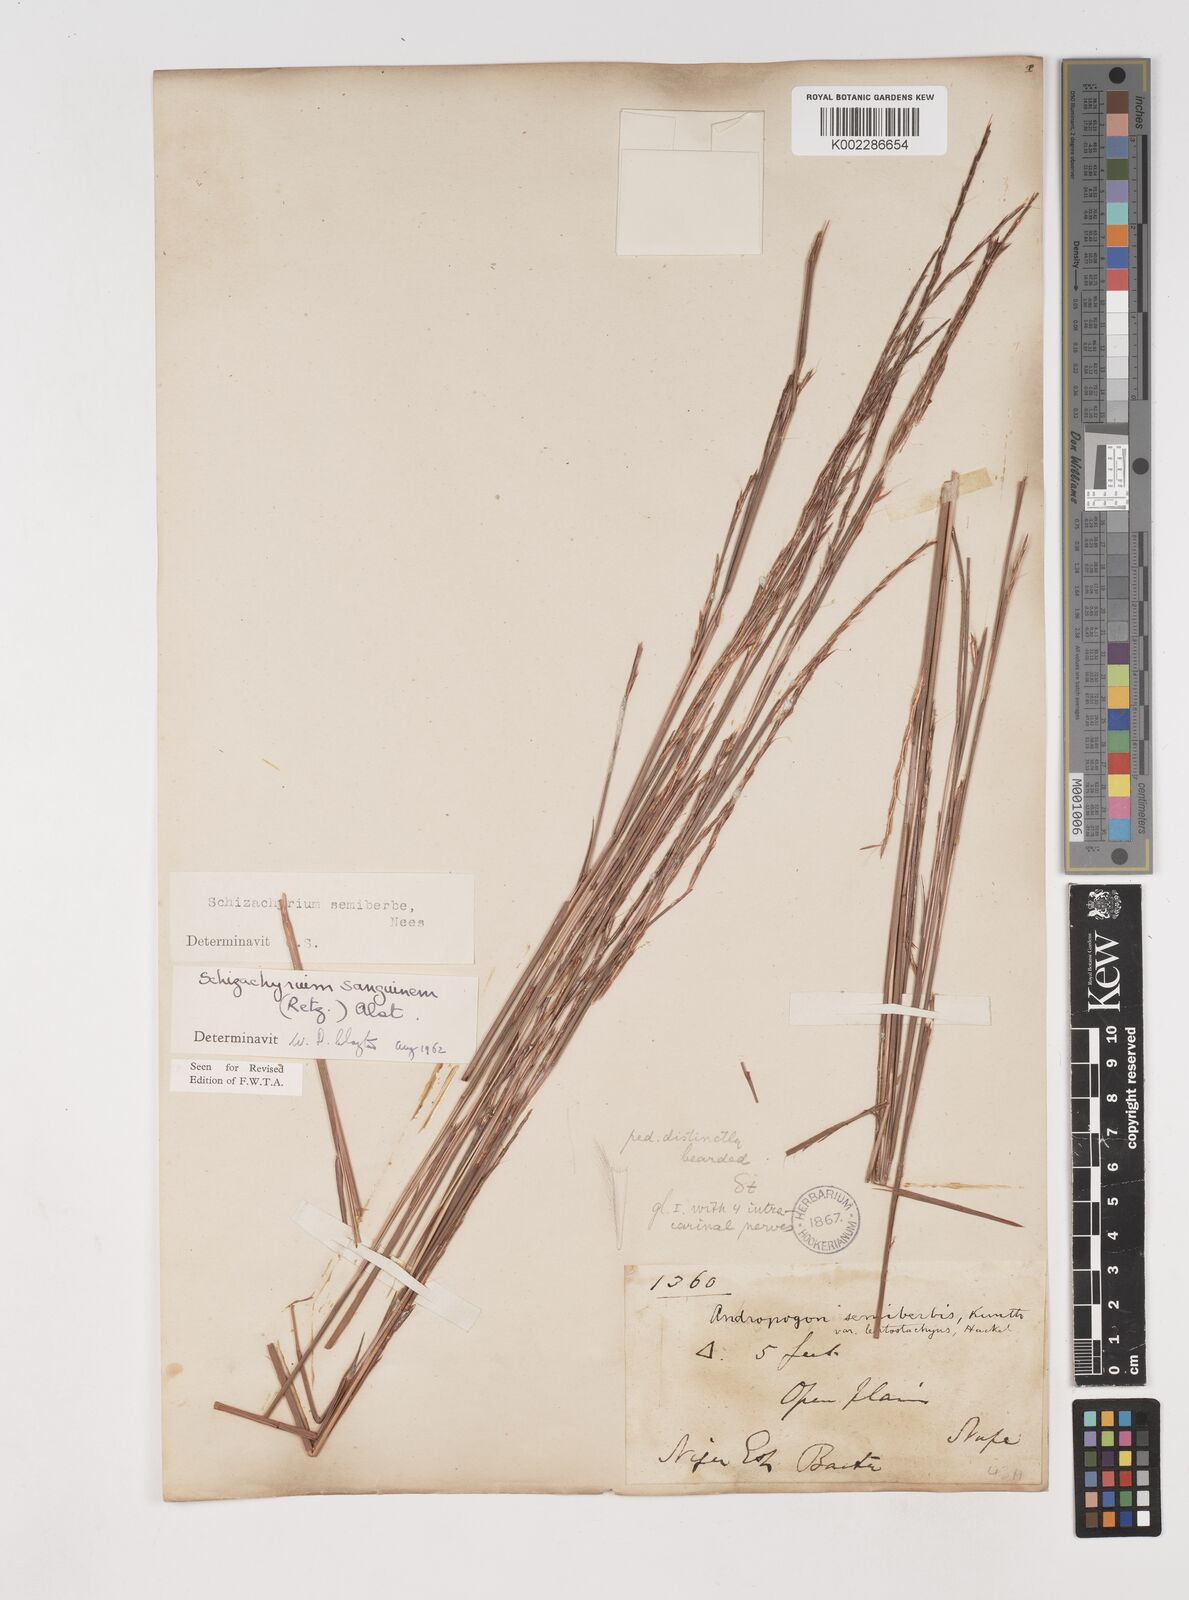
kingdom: Plantae
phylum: Tracheophyta
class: Liliopsida
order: Poales
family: Poaceae
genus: Schizachyrium
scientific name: Schizachyrium sanguineum
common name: Crimson bluestem
